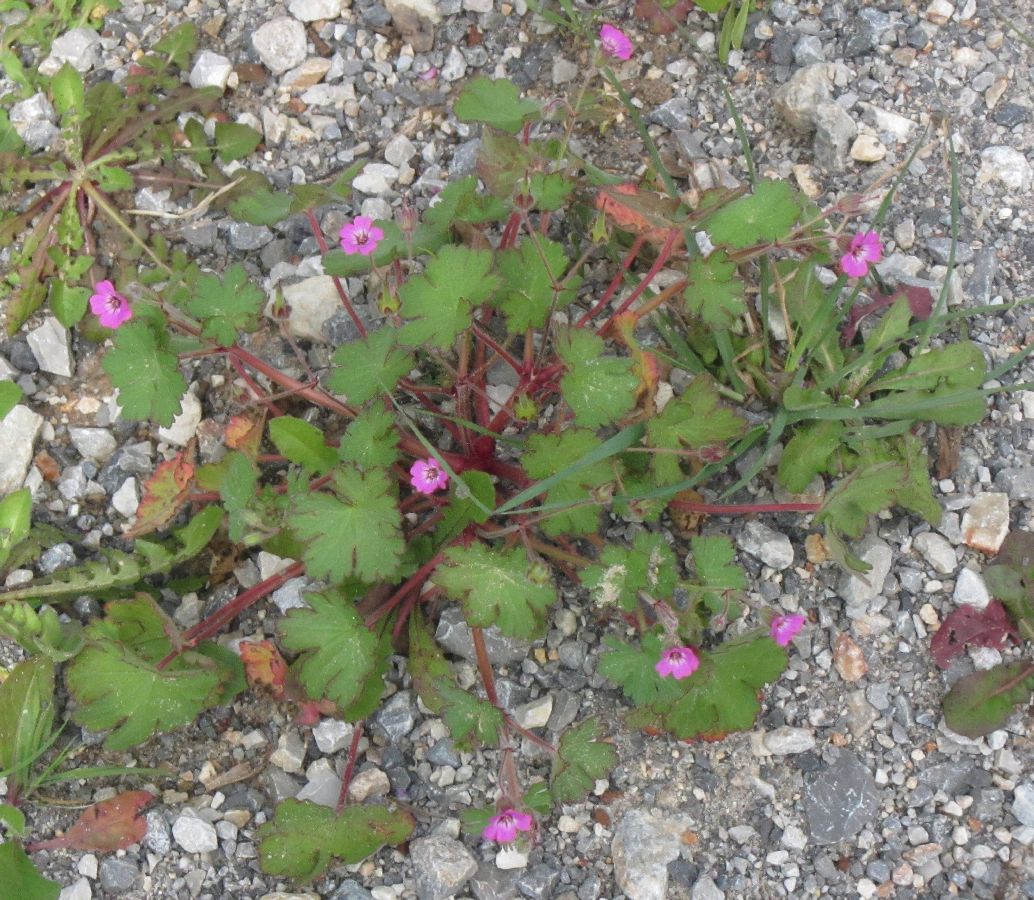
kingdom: Plantae
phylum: Tracheophyta
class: Magnoliopsida
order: Geraniales
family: Geraniaceae
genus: Geranium
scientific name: Geranium rotundifolium
